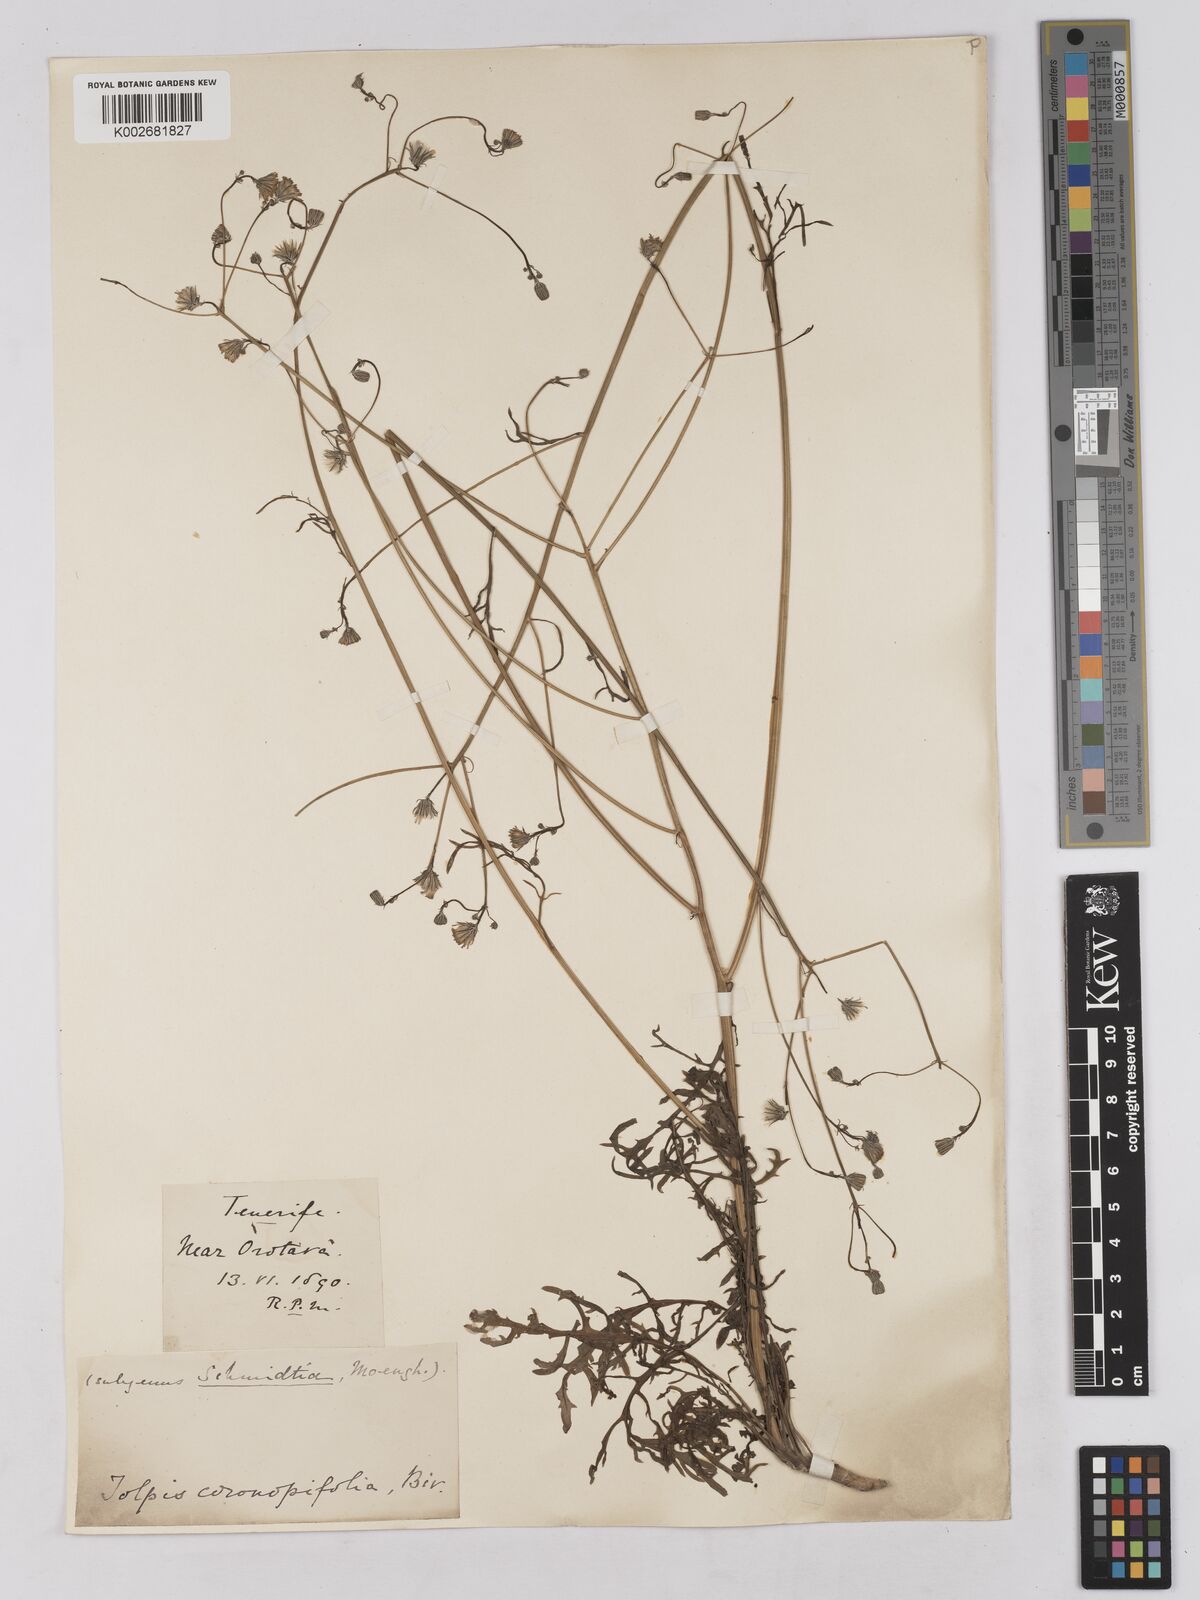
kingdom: Plantae
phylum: Tracheophyta
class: Magnoliopsida
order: Asterales
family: Asteraceae
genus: Tolpis
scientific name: Tolpis coronopifolia
